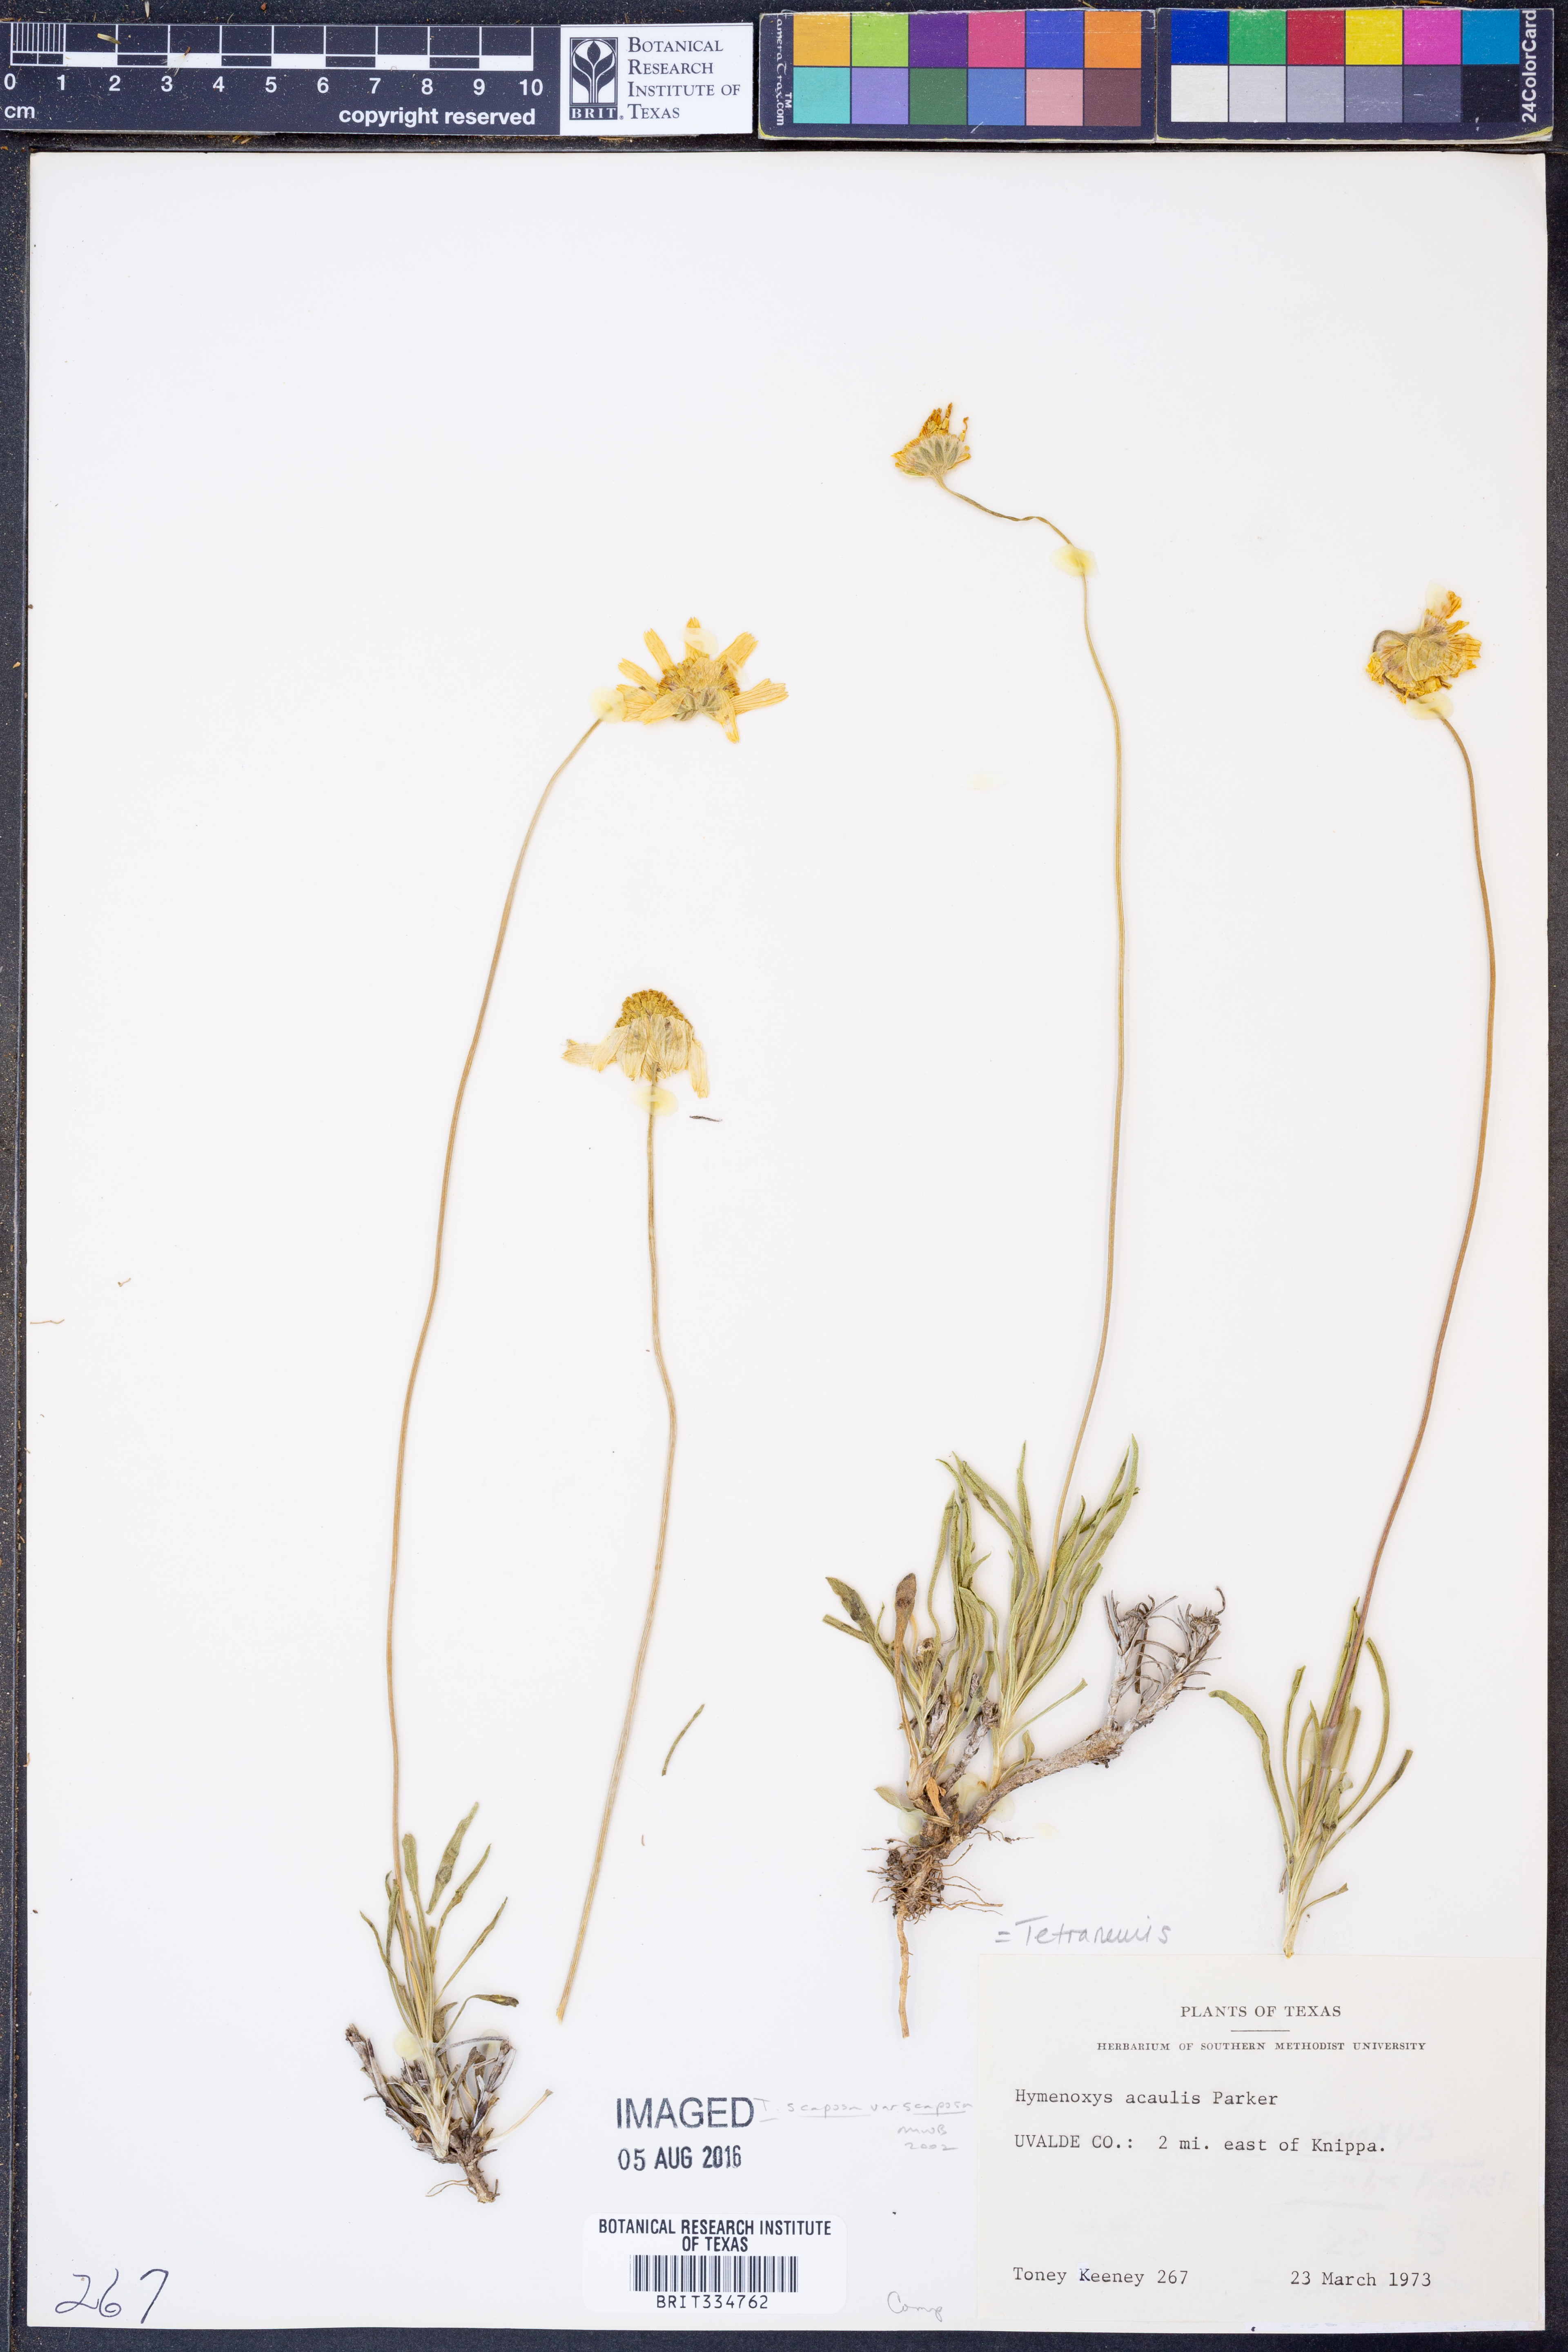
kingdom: Plantae
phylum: Tracheophyta
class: Magnoliopsida
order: Asterales
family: Asteraceae
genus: Tetraneuris
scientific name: Tetraneuris scaposa
